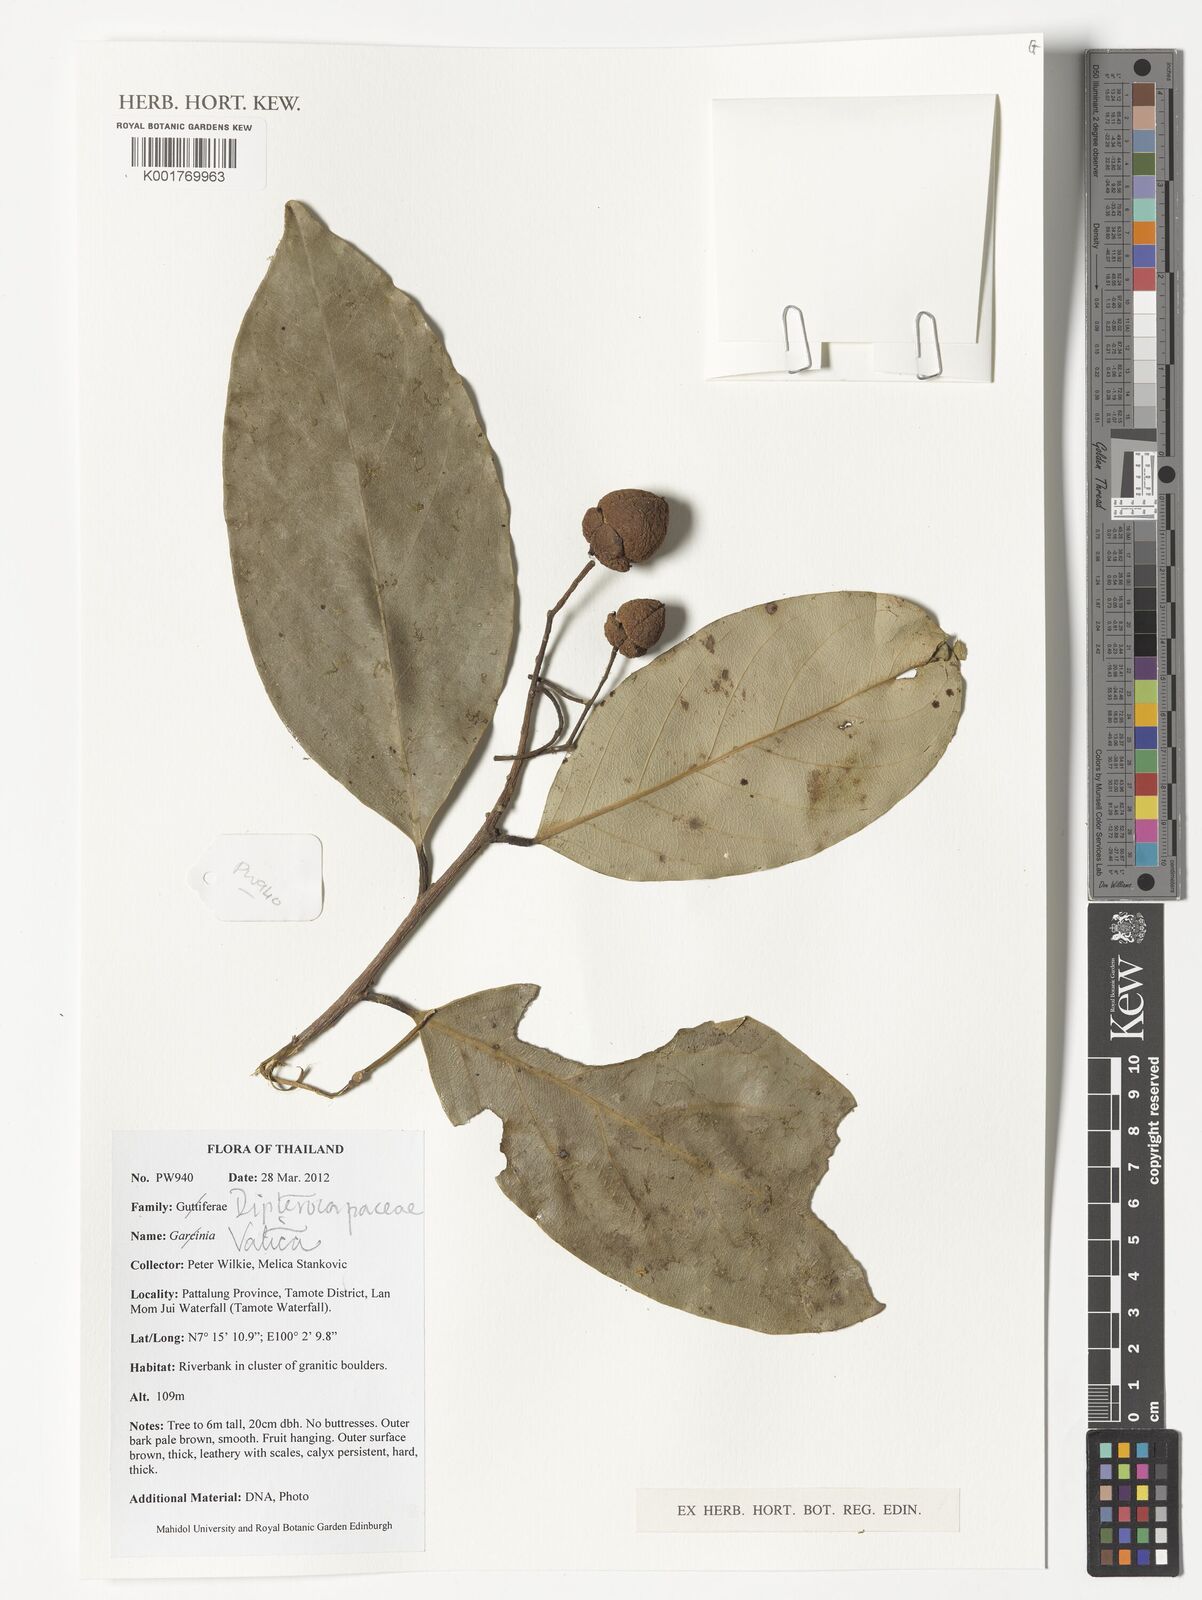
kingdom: Plantae
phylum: Tracheophyta
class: Magnoliopsida
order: Malvales
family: Dipterocarpaceae
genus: Vatica
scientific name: Vatica
